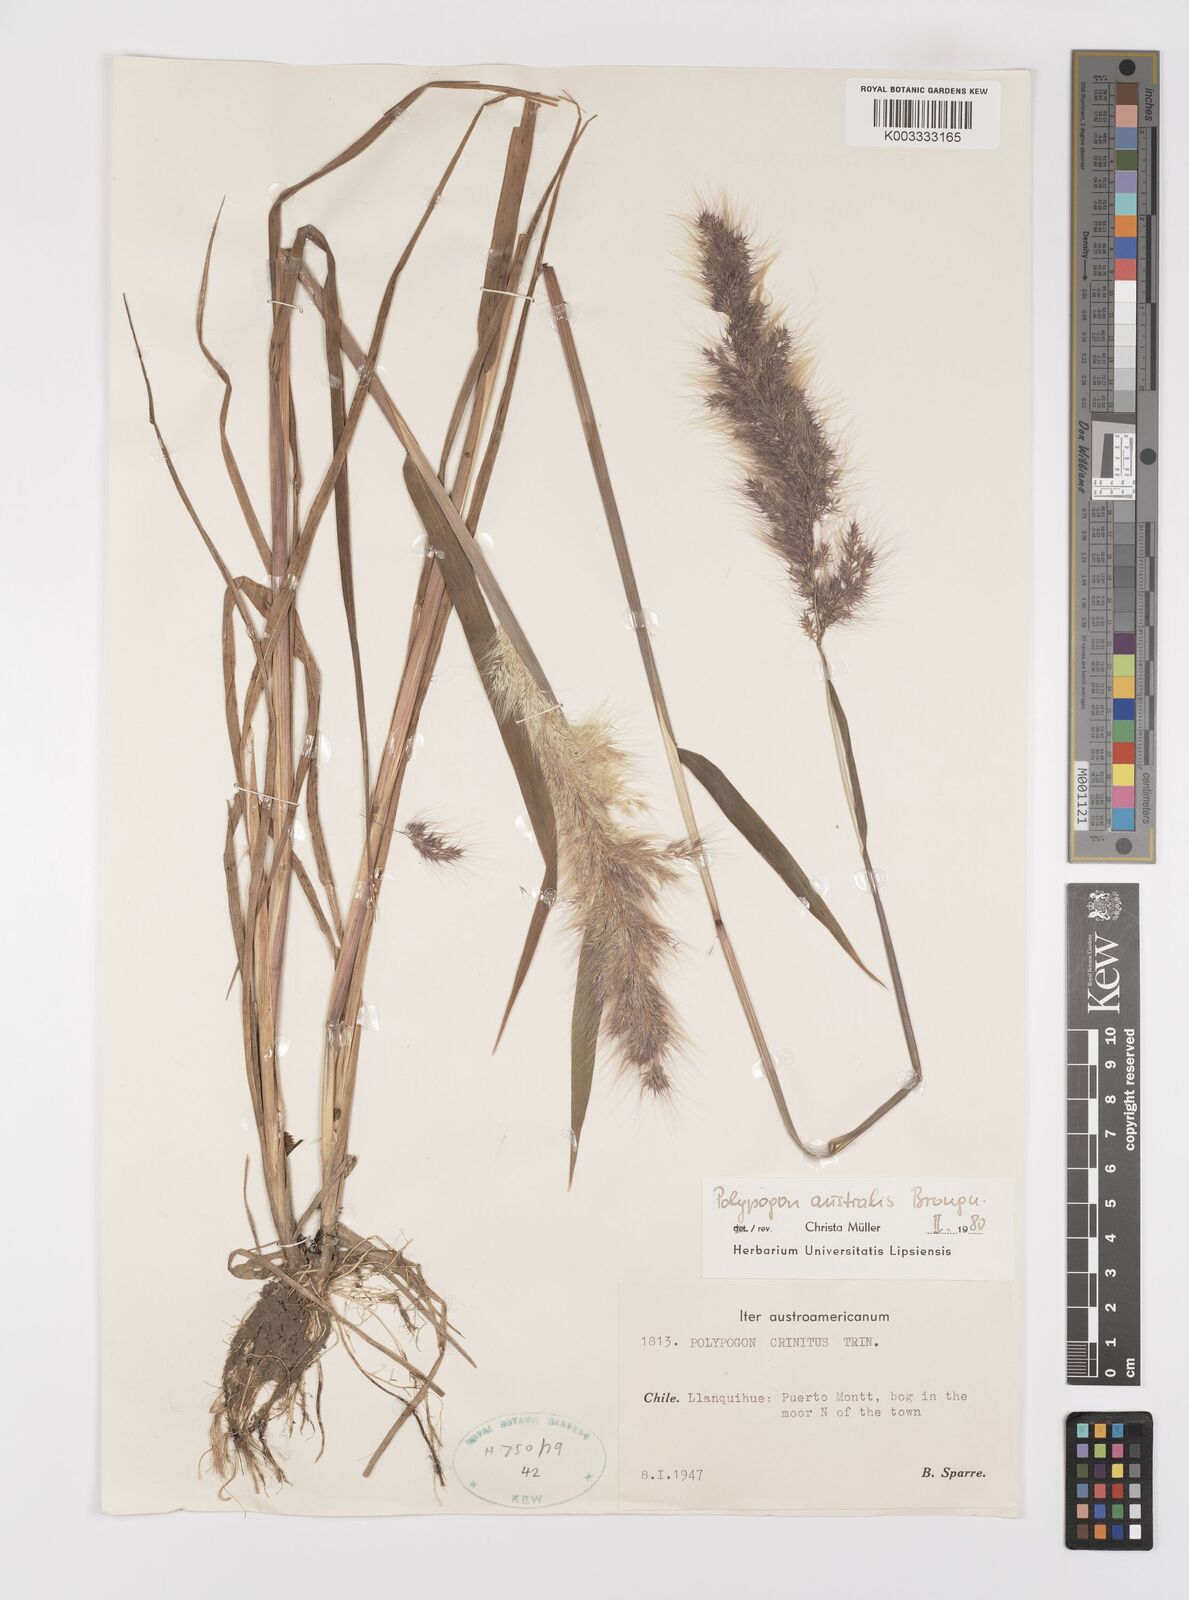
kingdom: Plantae
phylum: Tracheophyta
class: Liliopsida
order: Poales
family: Poaceae
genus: Polypogon
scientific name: Polypogon australis
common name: Chilean rabbitsfoot grass
